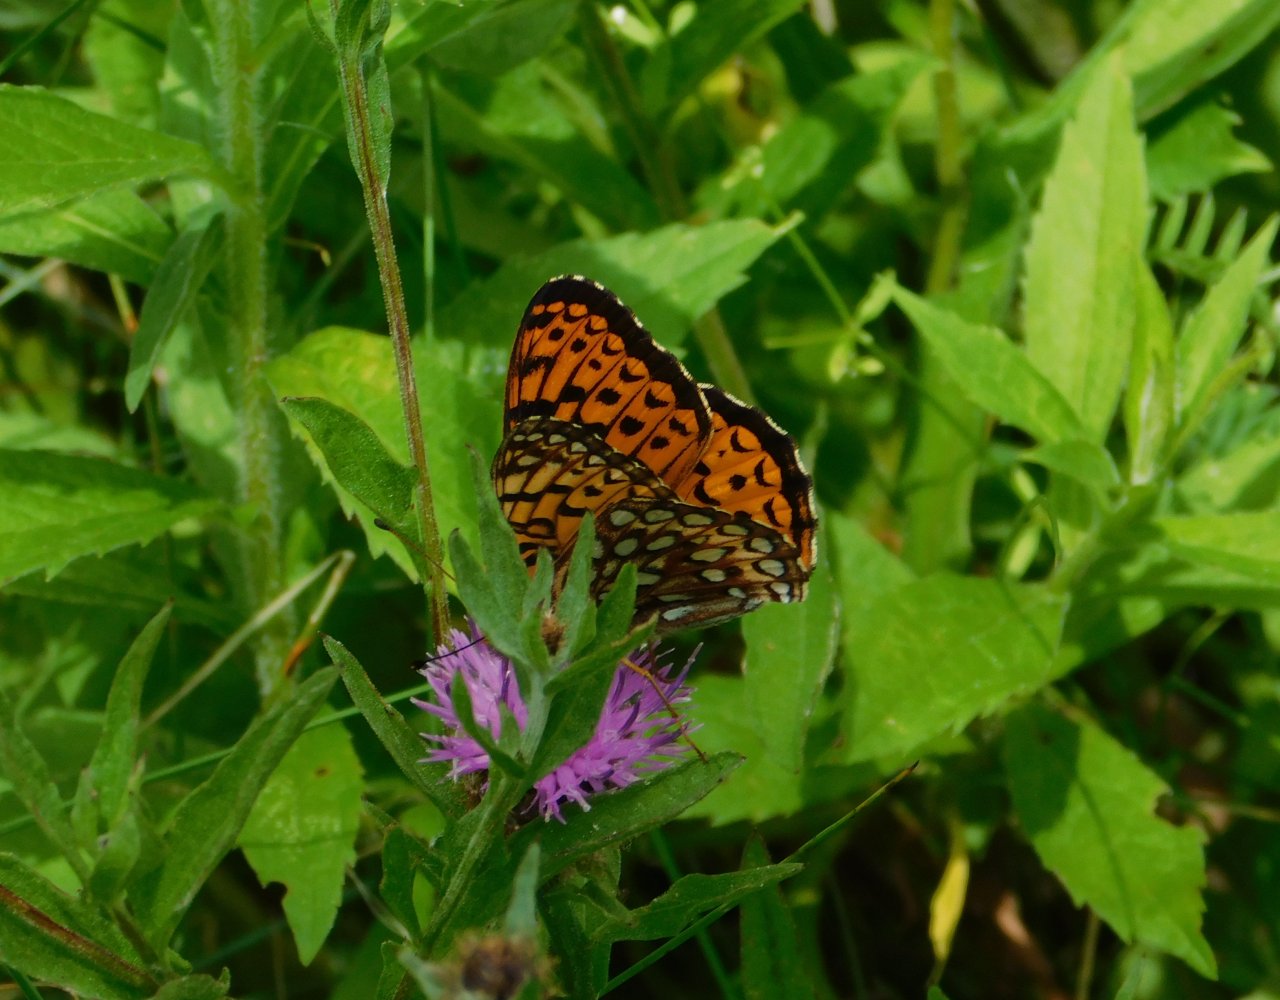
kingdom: Animalia
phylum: Arthropoda
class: Insecta
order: Lepidoptera
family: Nymphalidae
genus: Speyeria
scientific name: Speyeria atlantis
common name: Atlantis Fritillary
